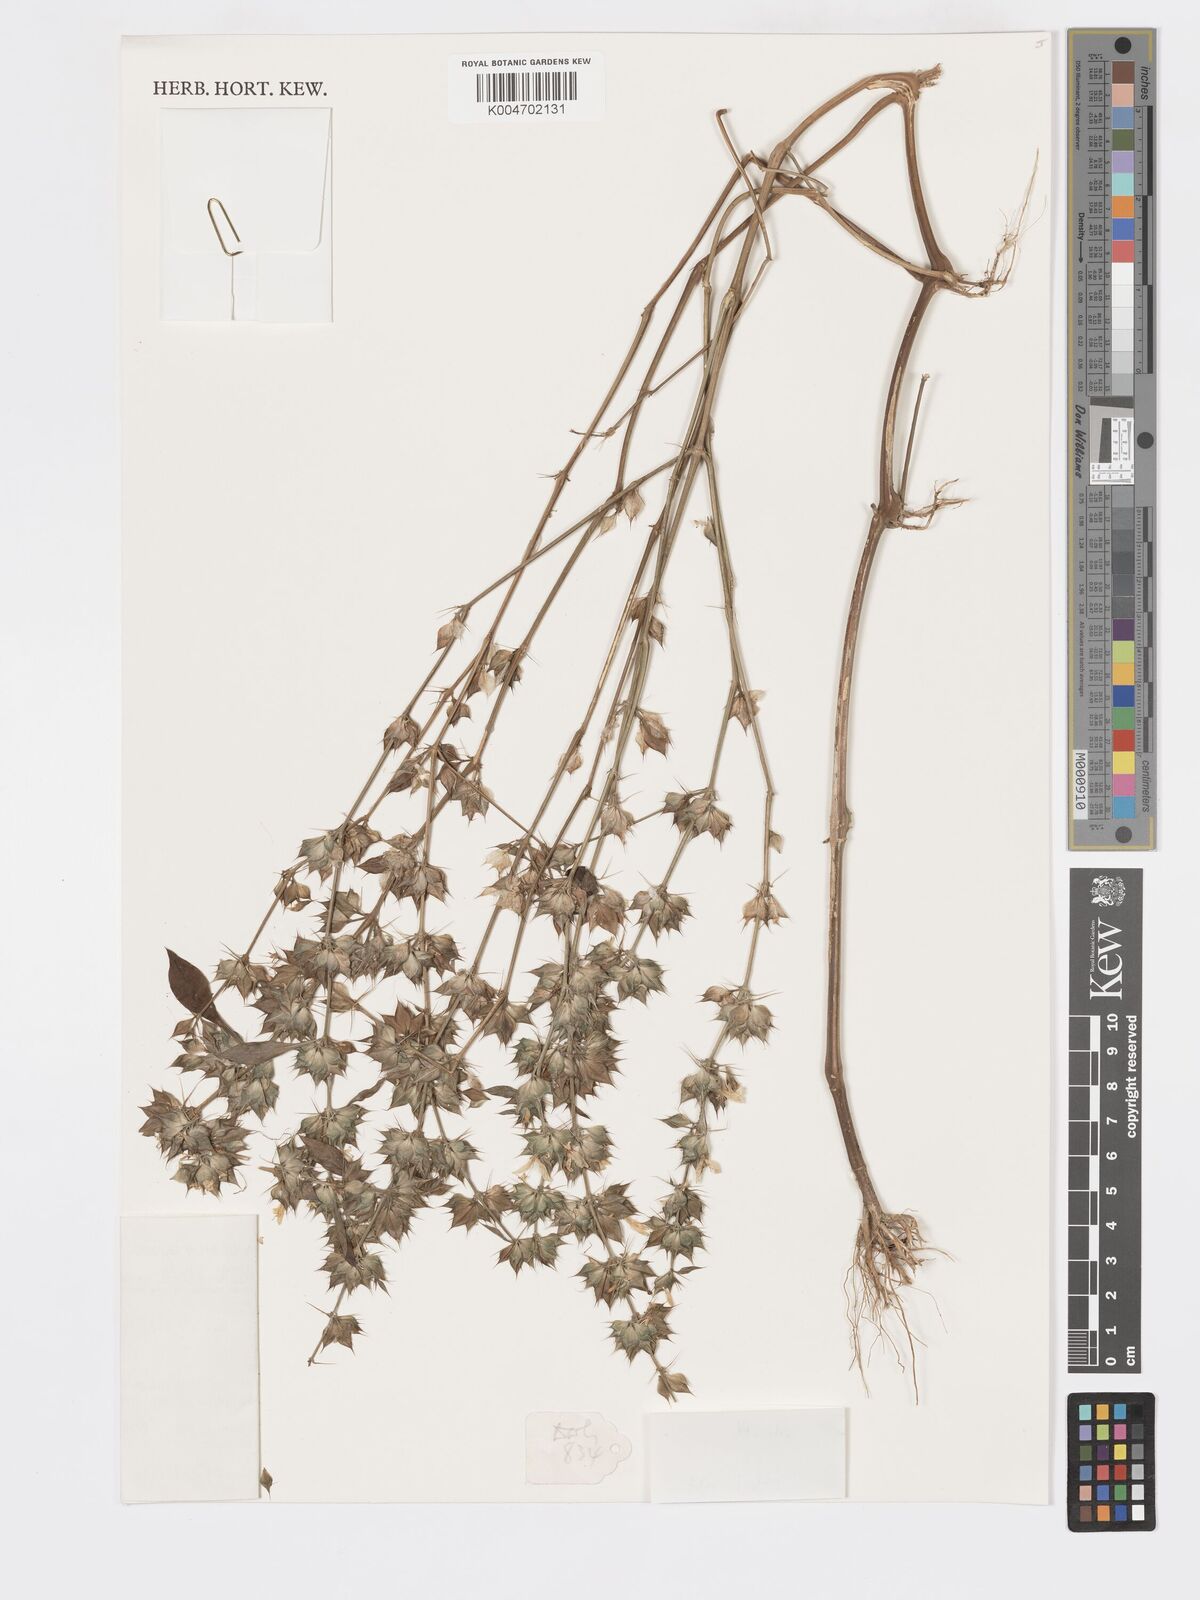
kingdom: Plantae
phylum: Tracheophyta
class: Magnoliopsida
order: Lamiales
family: Acanthaceae
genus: Dicliptera
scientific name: Dicliptera ciliaris
